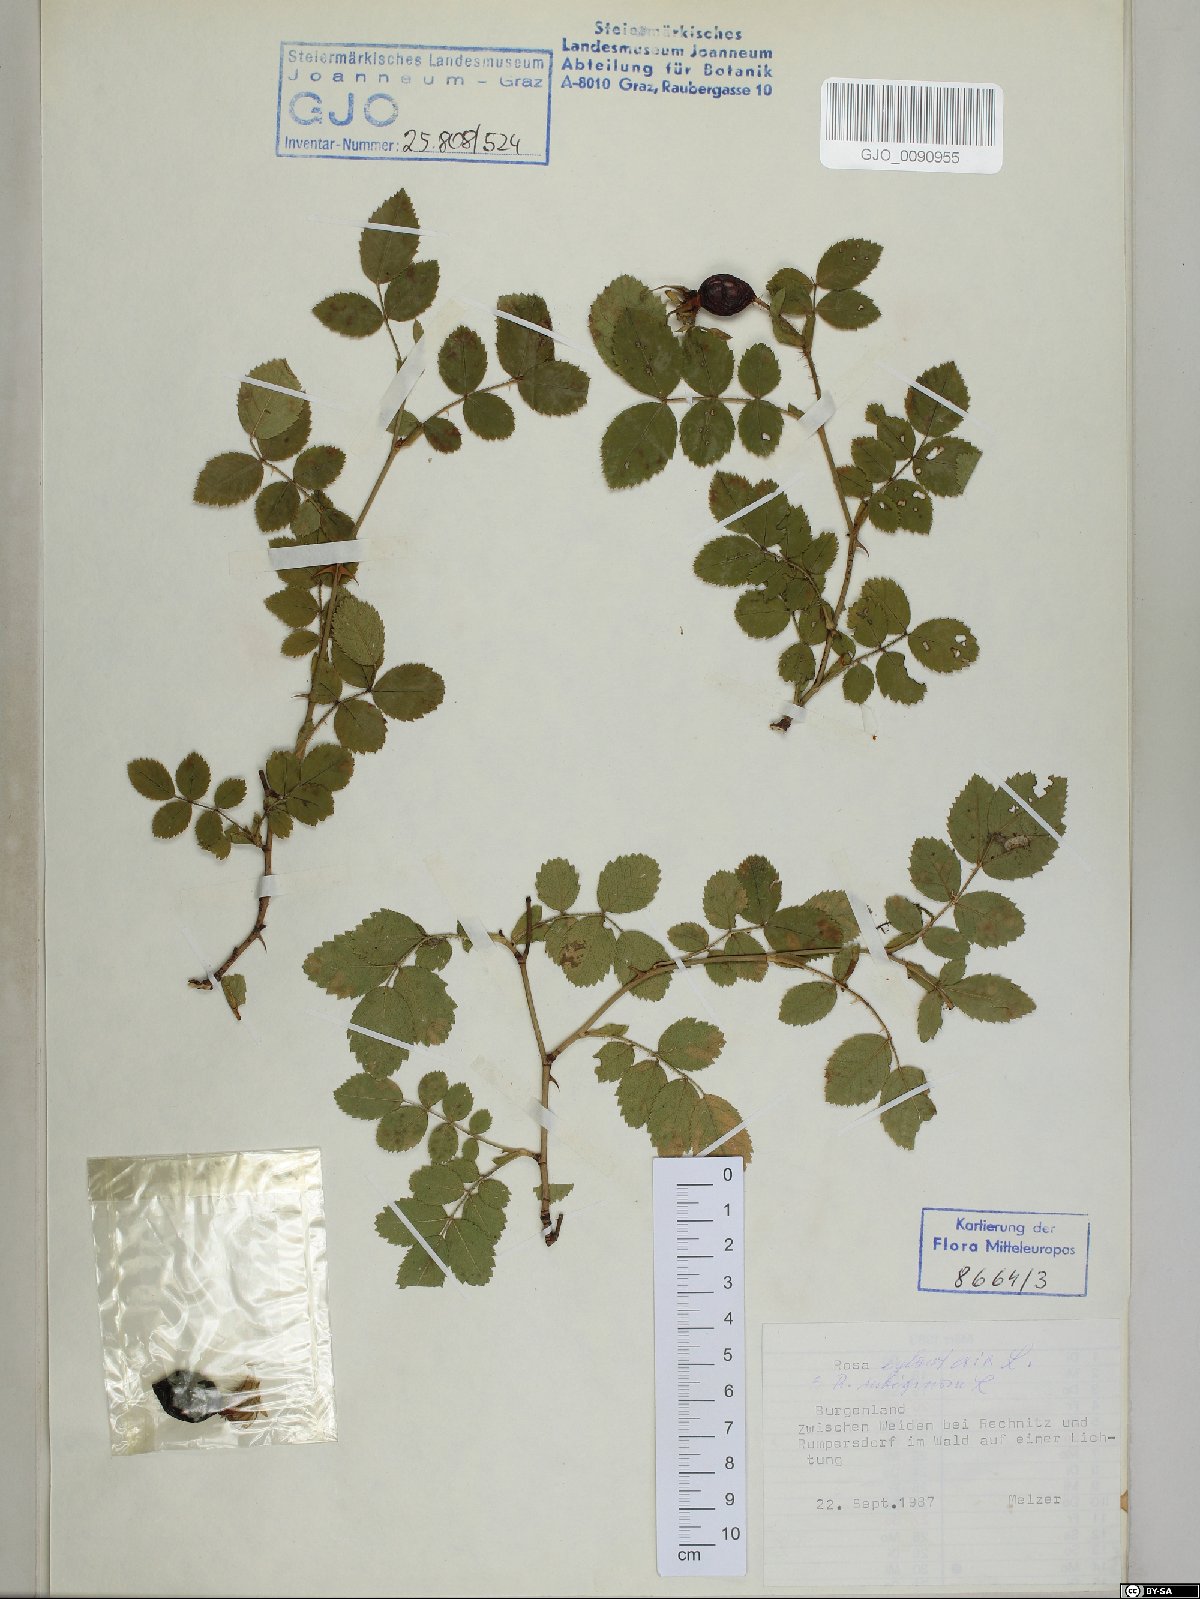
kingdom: Plantae
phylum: Tracheophyta
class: Magnoliopsida
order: Rosales
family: Rosaceae
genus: Rosa
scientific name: Rosa rubiginosa
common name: Sweet-briar
